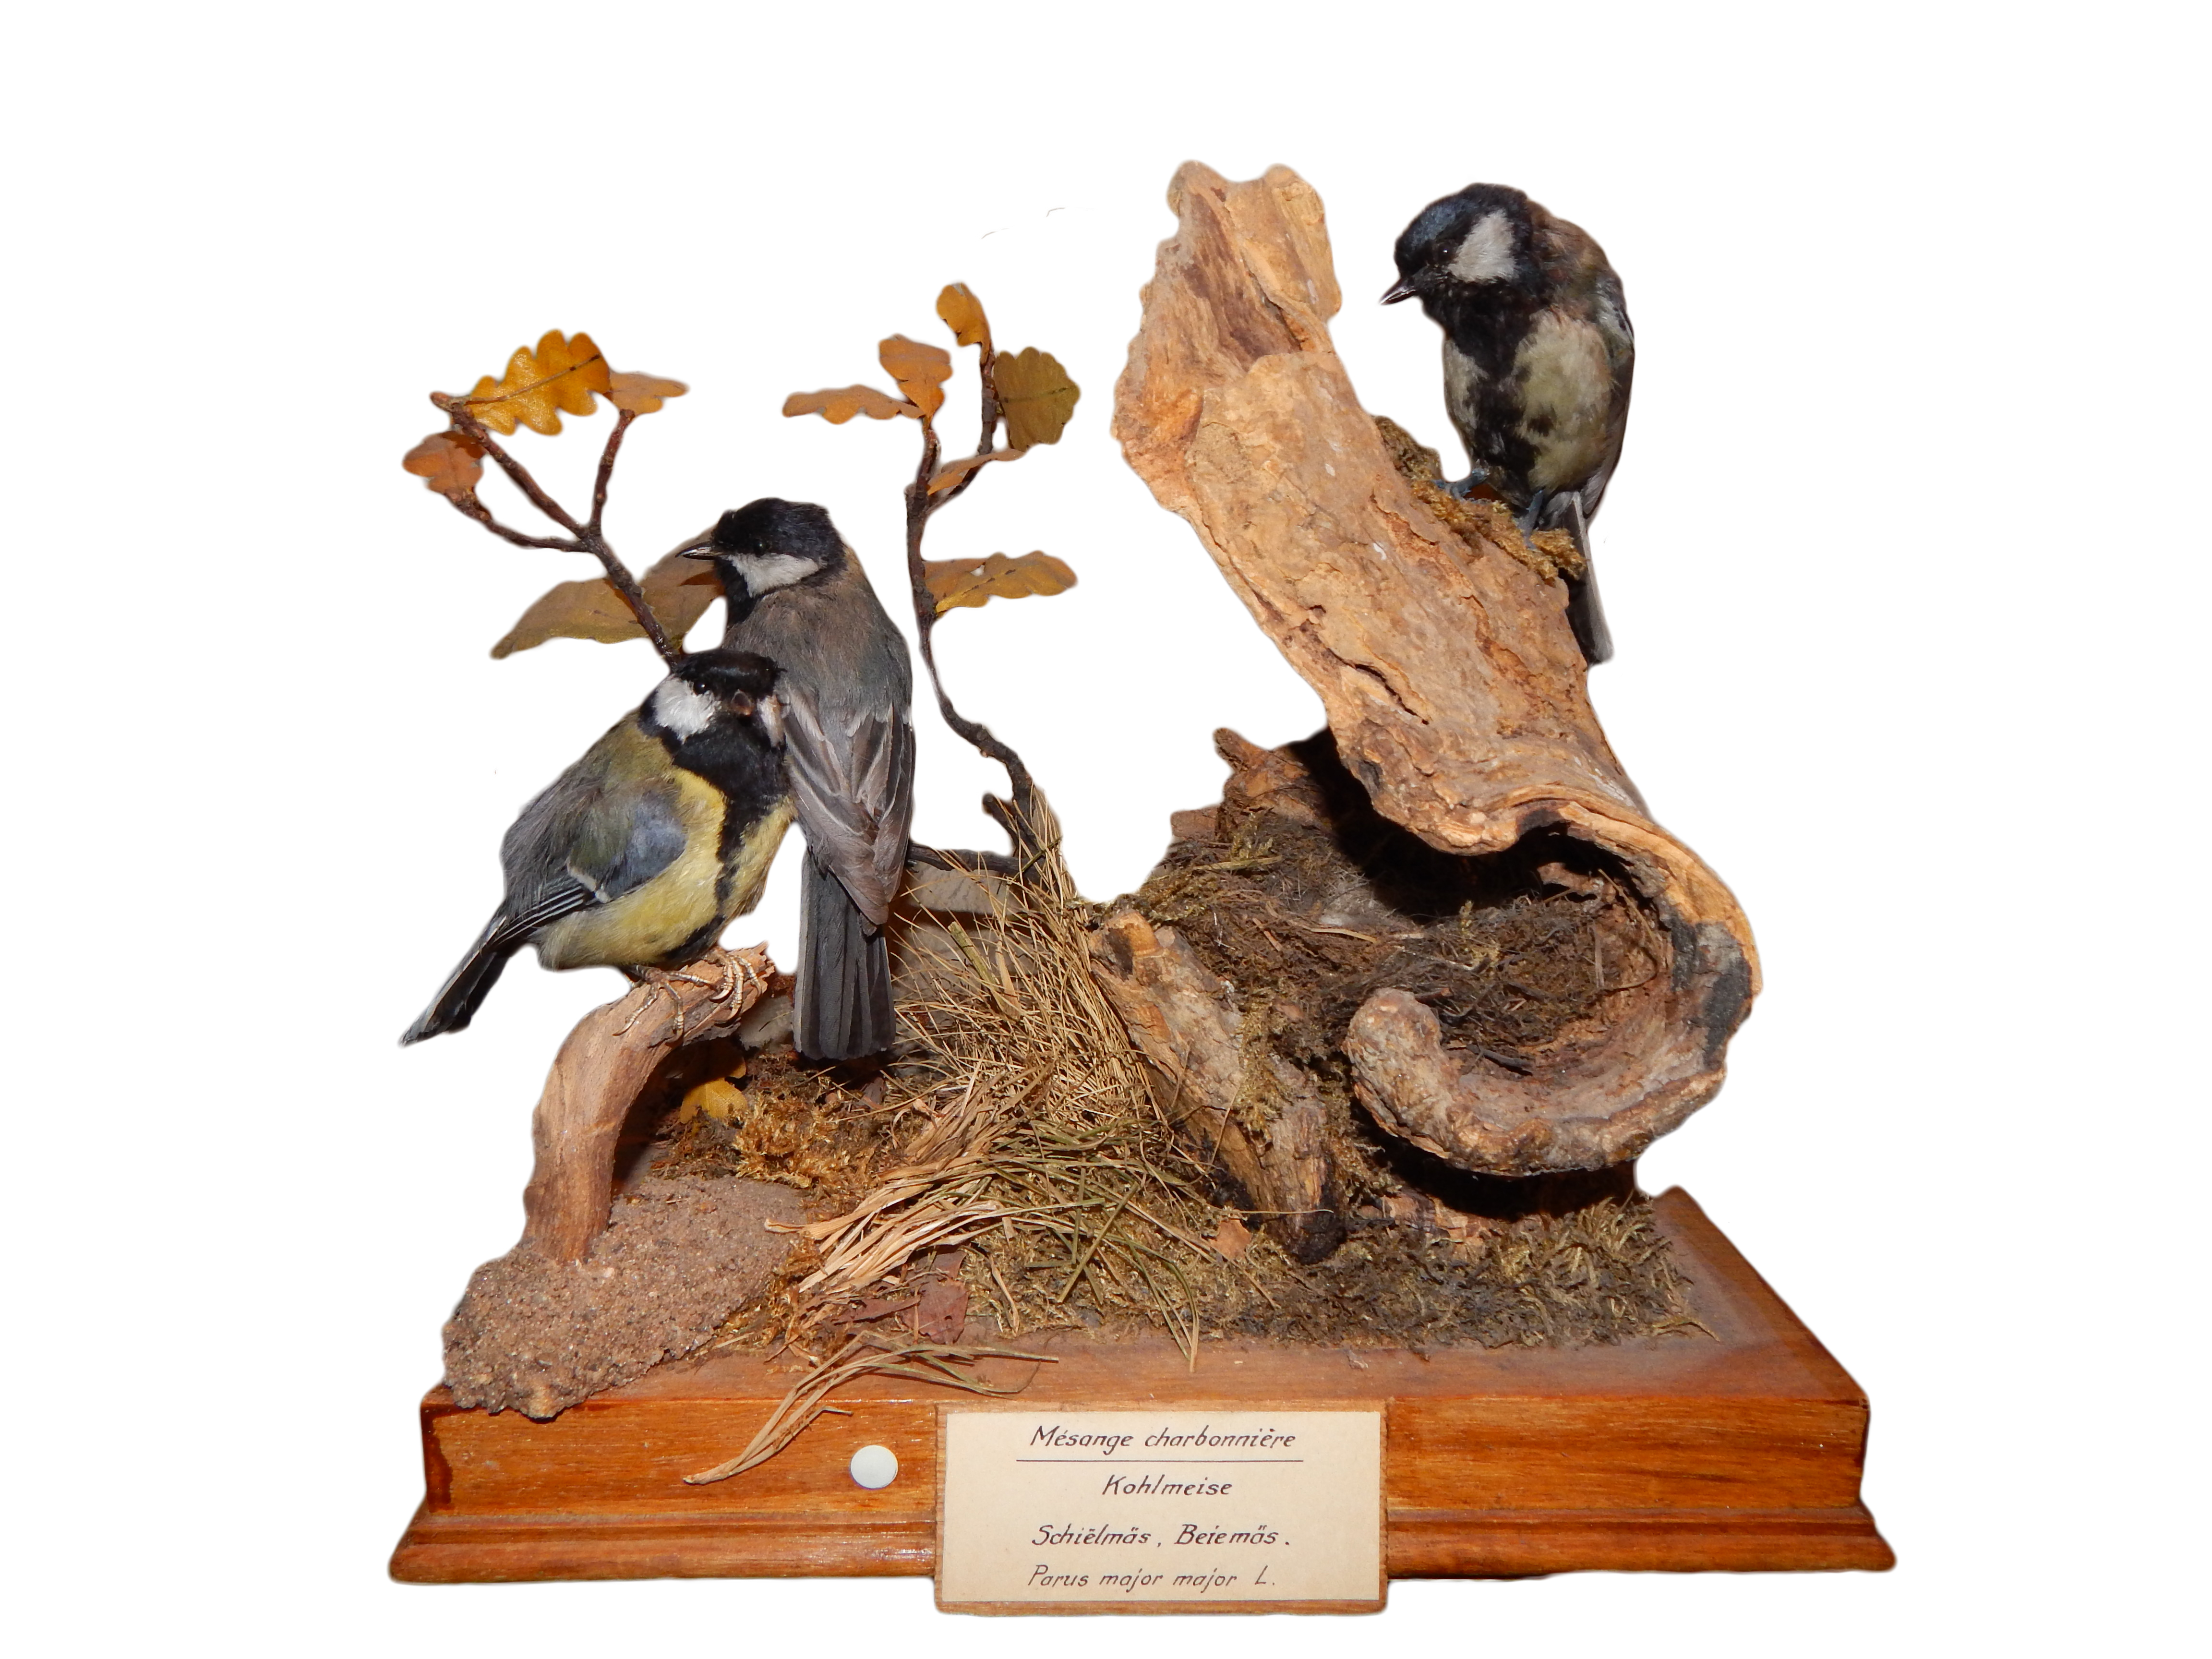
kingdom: Animalia
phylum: Chordata
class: Aves
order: Passeriformes
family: Paridae
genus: Parus
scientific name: Parus major
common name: Great tit
